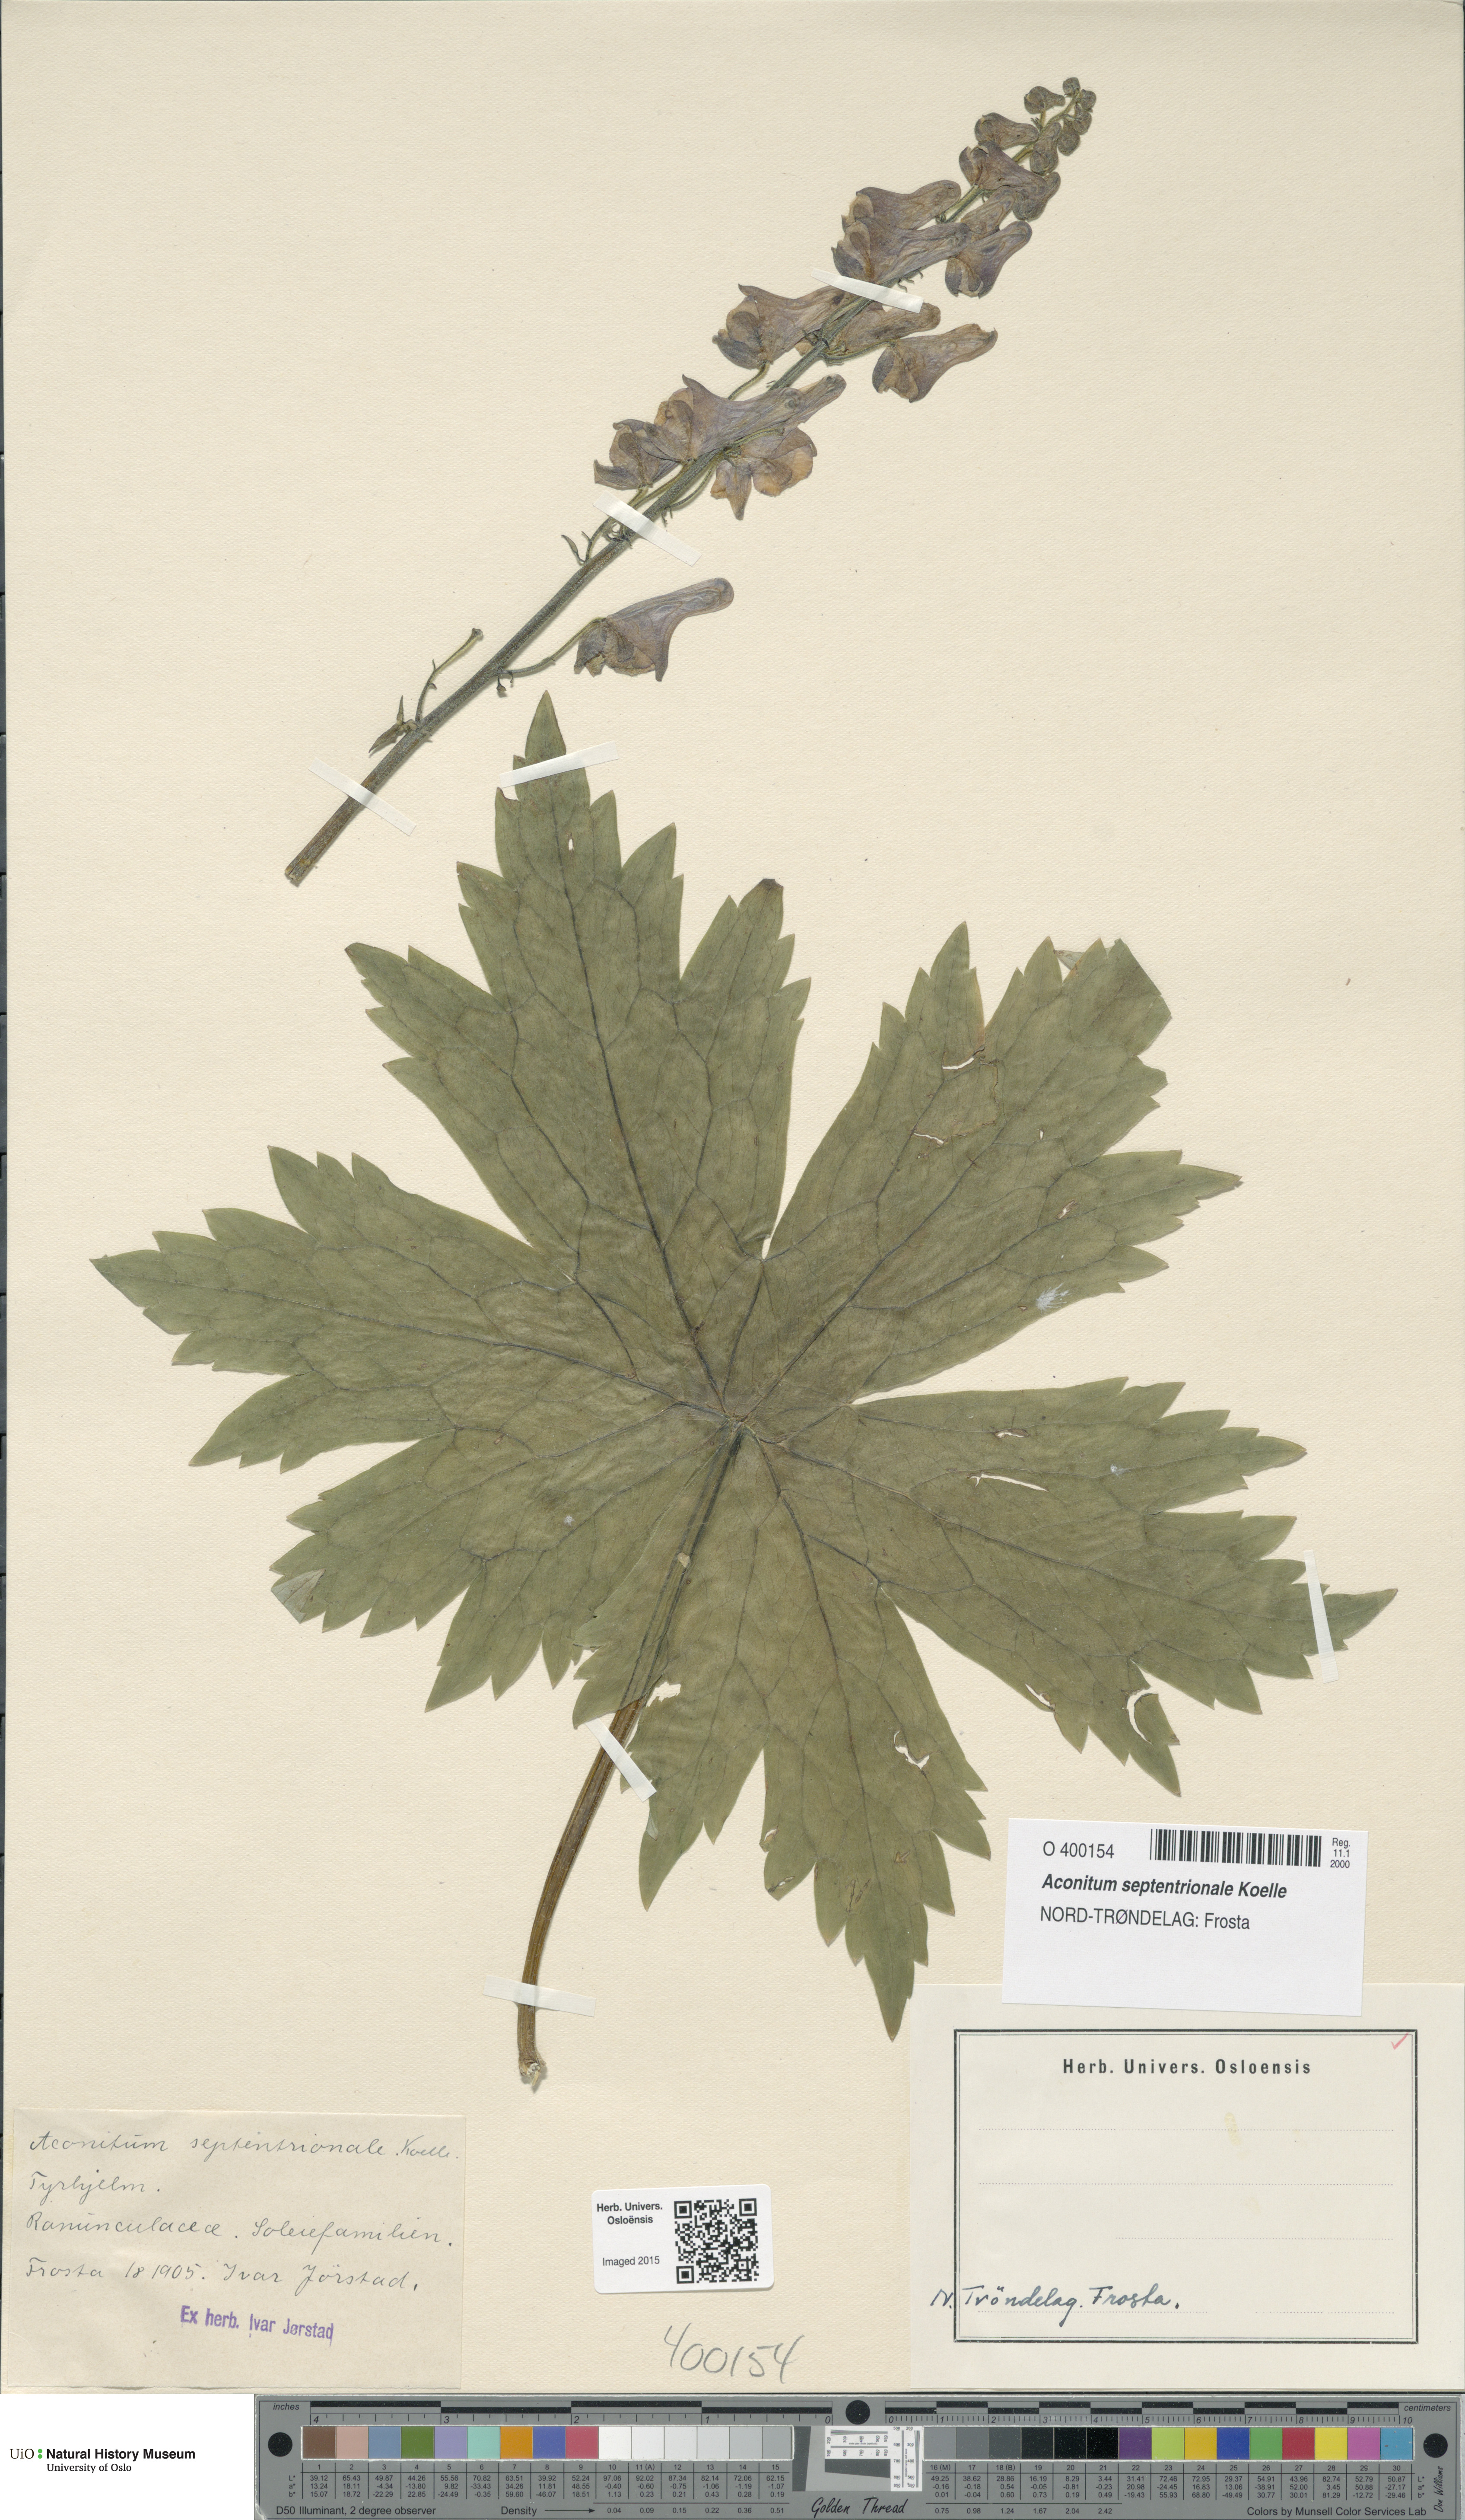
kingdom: Plantae
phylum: Tracheophyta
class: Magnoliopsida
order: Ranunculales
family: Ranunculaceae
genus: Aconitum
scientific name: Aconitum septentrionale
